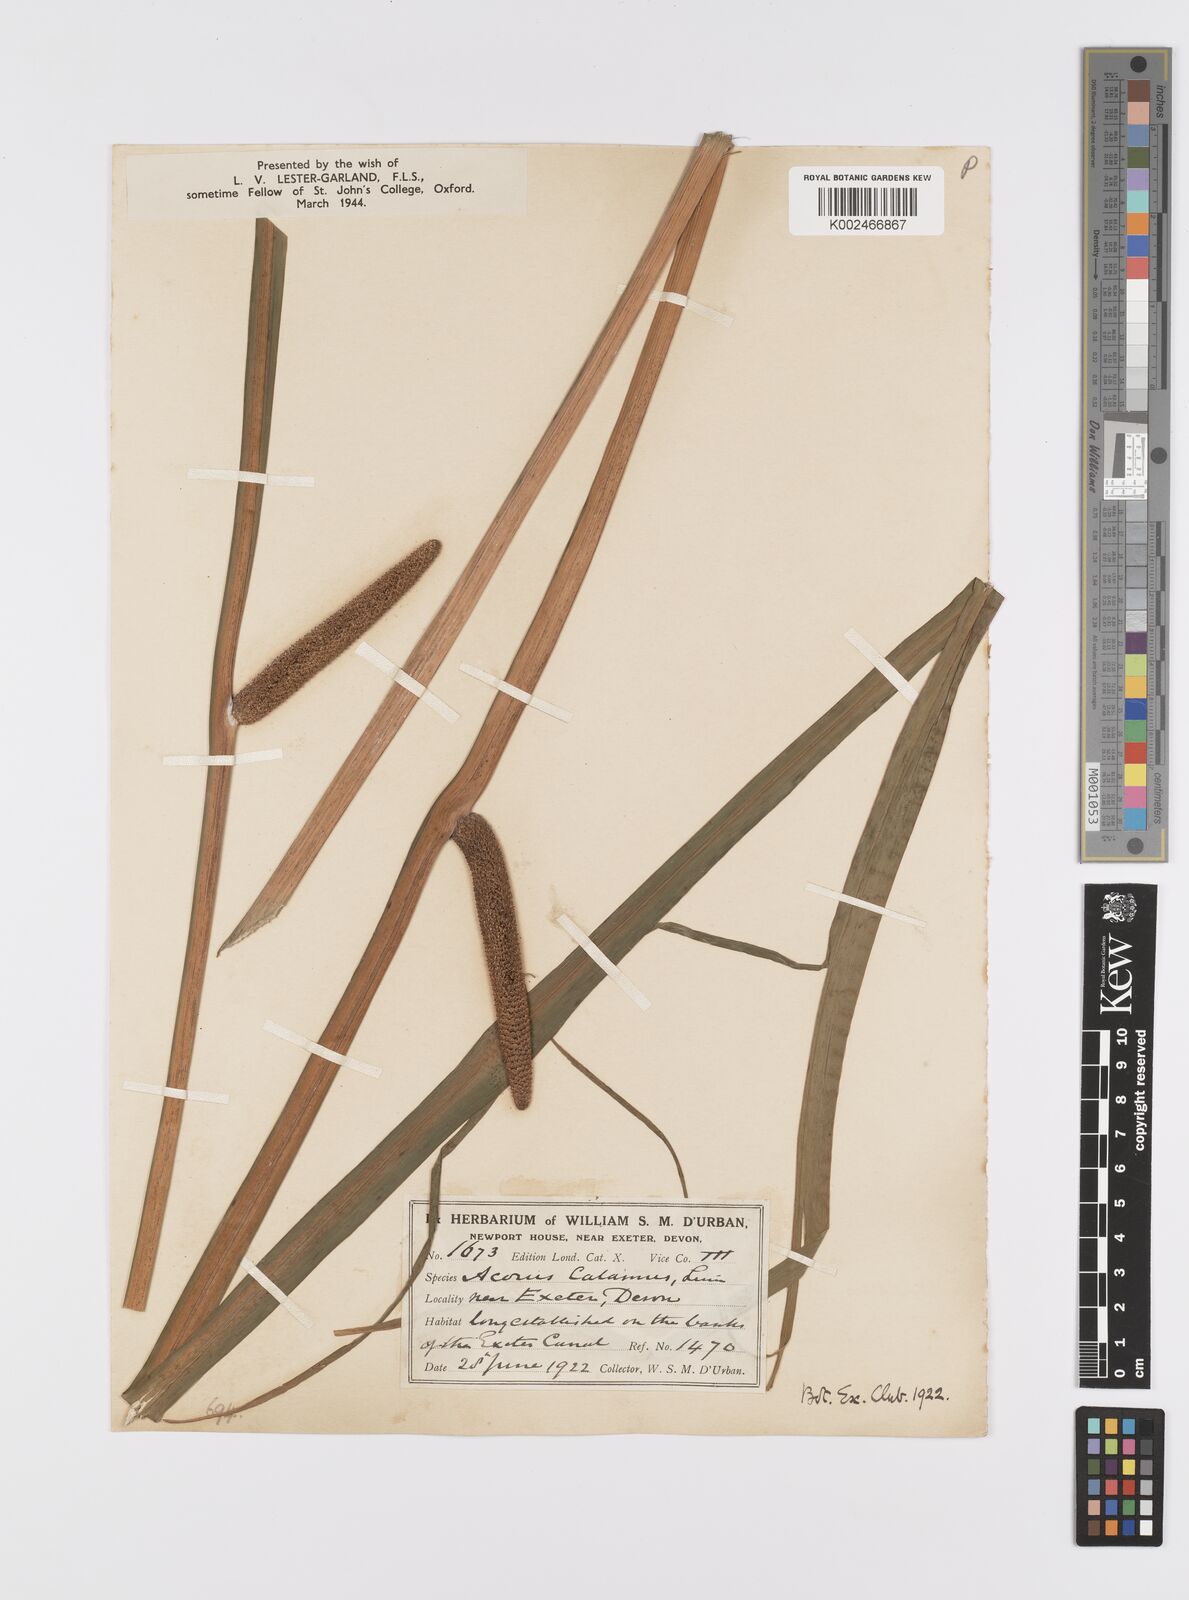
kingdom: Plantae
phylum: Tracheophyta
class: Liliopsida
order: Acorales
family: Acoraceae
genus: Acorus
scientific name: Acorus calamus
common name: Sweet-flag
